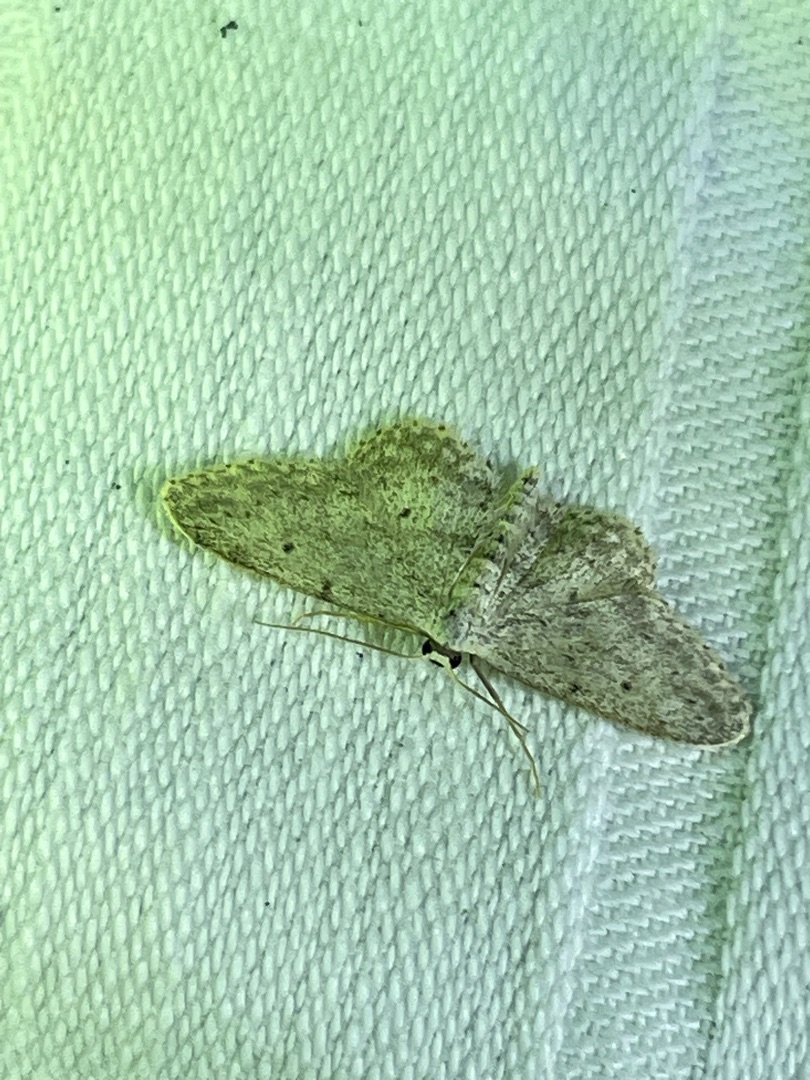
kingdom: Animalia
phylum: Arthropoda
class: Insecta
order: Lepidoptera
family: Geometridae
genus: Idaea
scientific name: Idaea seriata
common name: Gråplettet løvmåler
